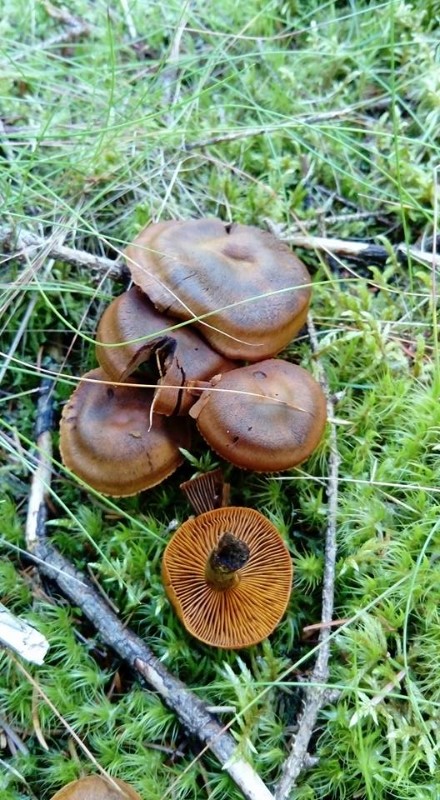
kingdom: Fungi
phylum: Basidiomycota
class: Agaricomycetes
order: Agaricales
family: Cortinariaceae
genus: Cortinarius
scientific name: Cortinarius
